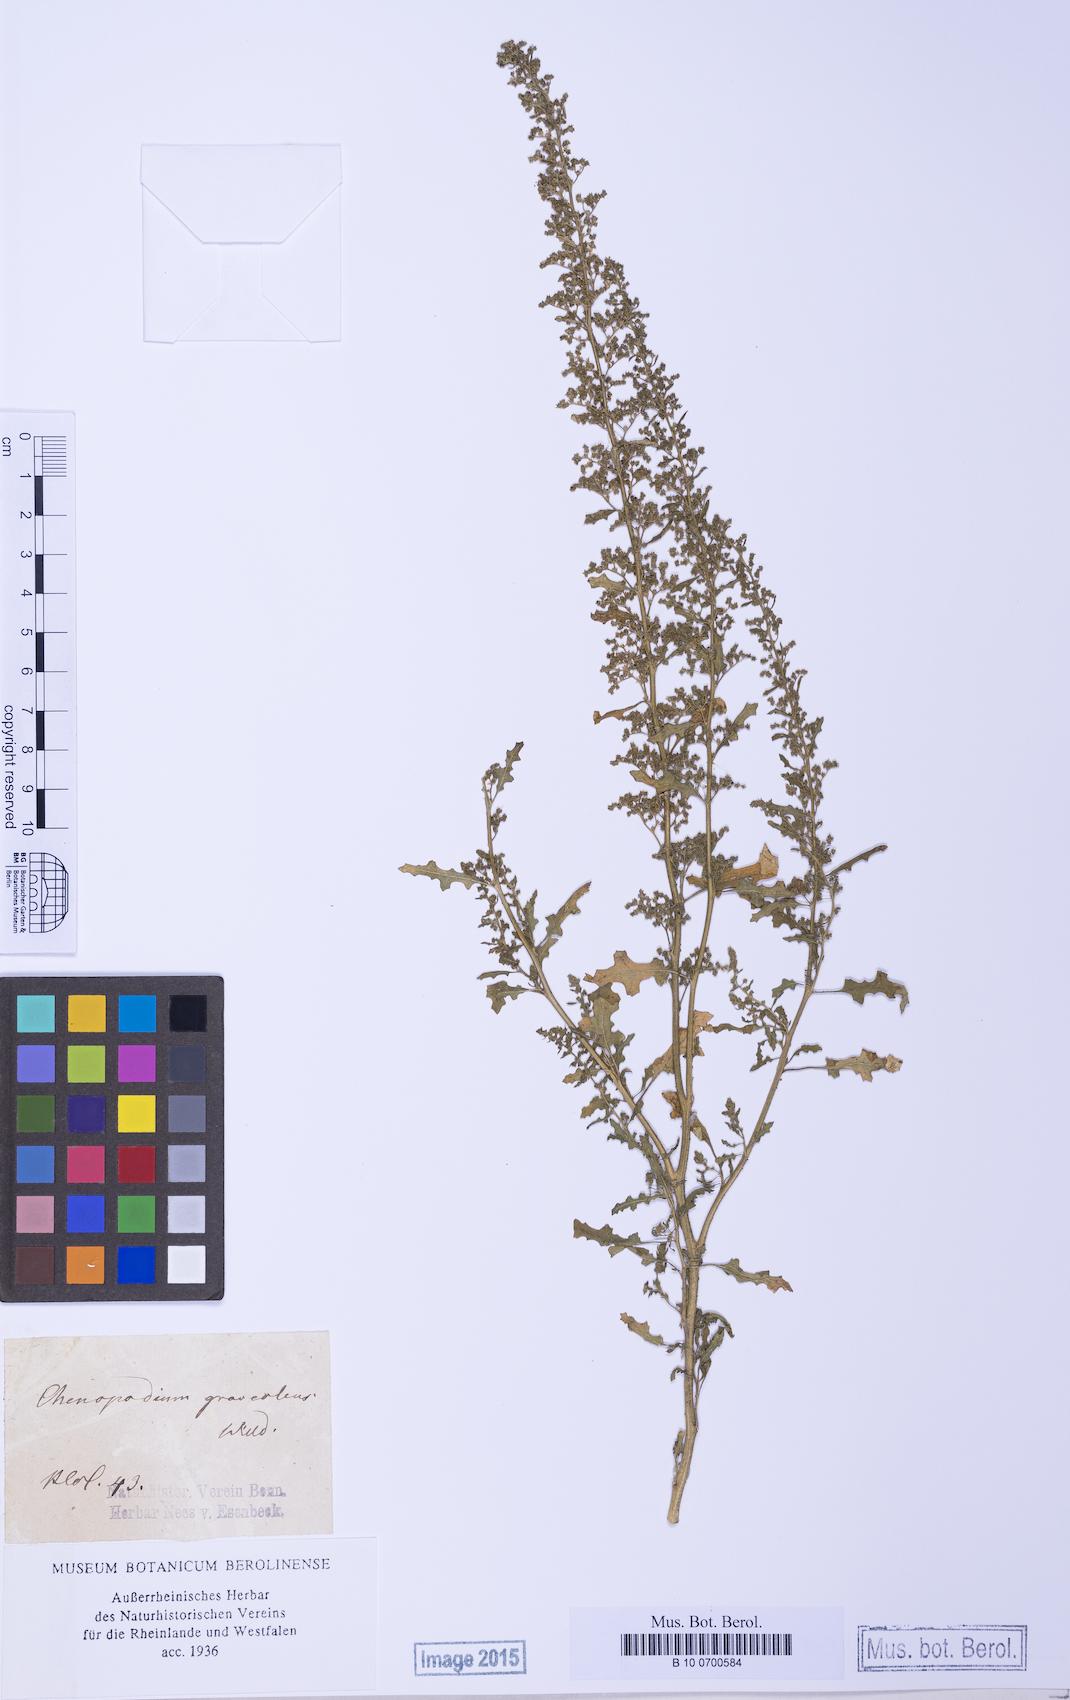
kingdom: Plantae
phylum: Tracheophyta
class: Magnoliopsida
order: Caryophyllales
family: Amaranthaceae
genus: Dysphania
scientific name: Dysphania botrys
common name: Feather-geranium
